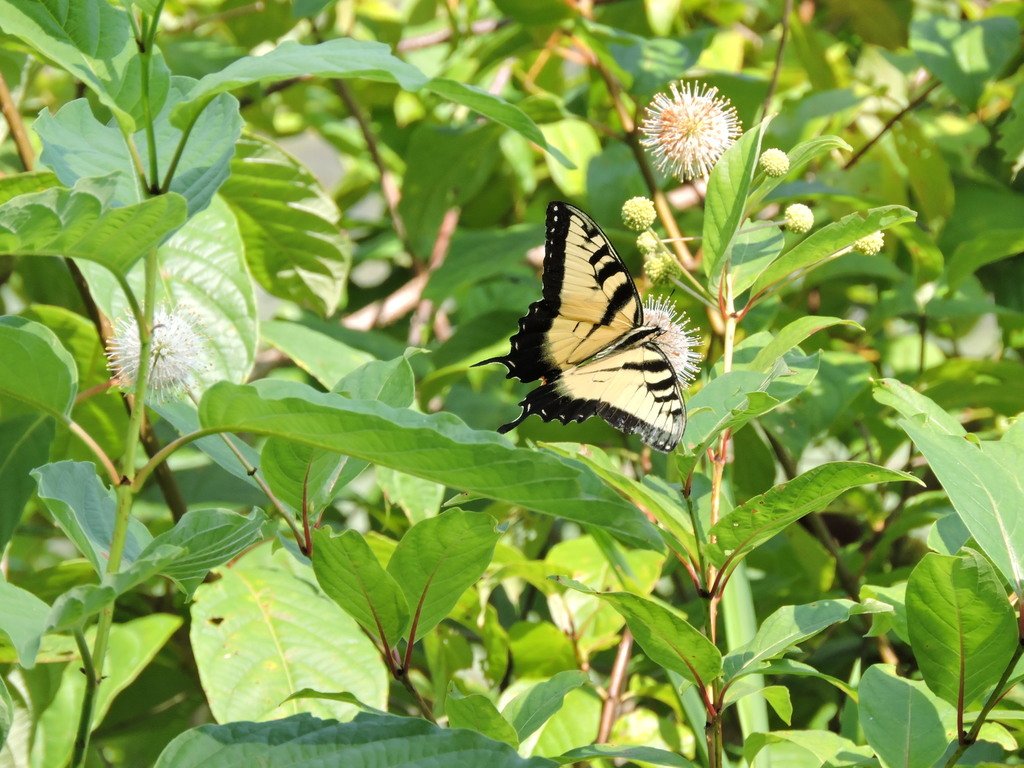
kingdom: Animalia
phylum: Arthropoda
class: Insecta
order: Lepidoptera
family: Papilionidae
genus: Pterourus
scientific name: Pterourus glaucus
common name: Eastern Tiger Swallowtail
